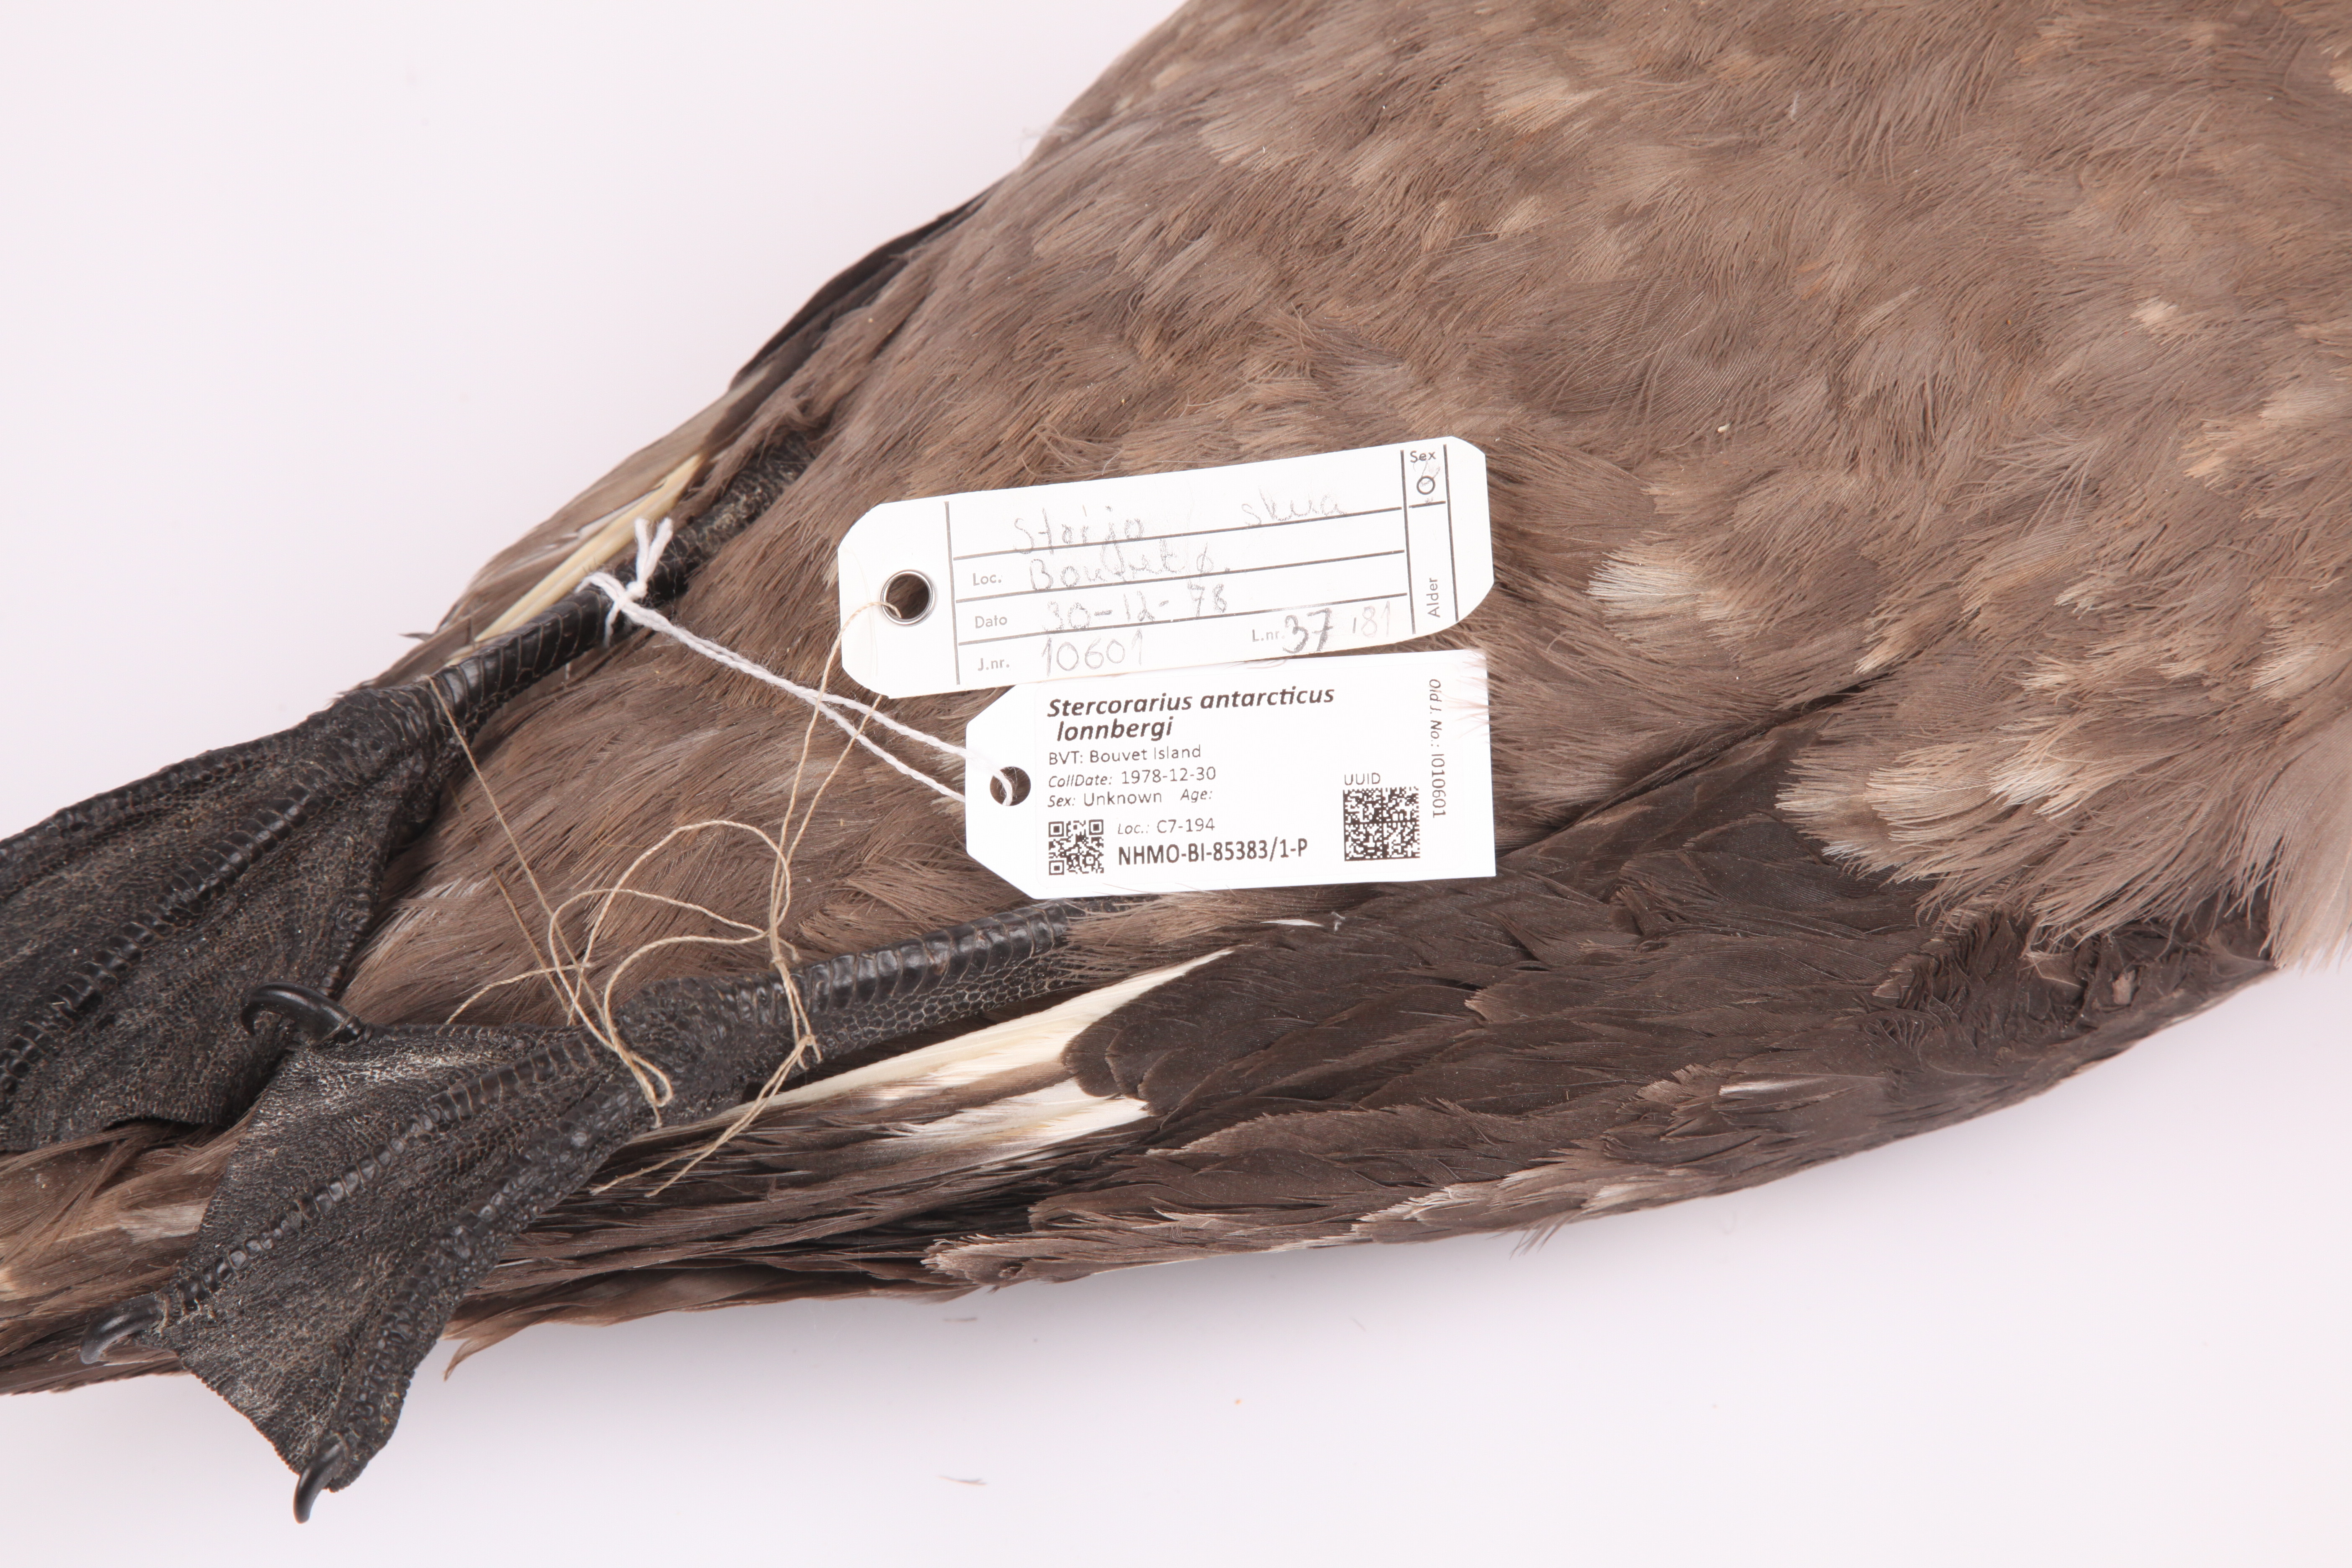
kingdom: Animalia
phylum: Chordata
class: Aves
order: Charadriiformes
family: Stercorariidae
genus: Stercorarius
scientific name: Stercorarius antarcticus
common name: Brown skua
